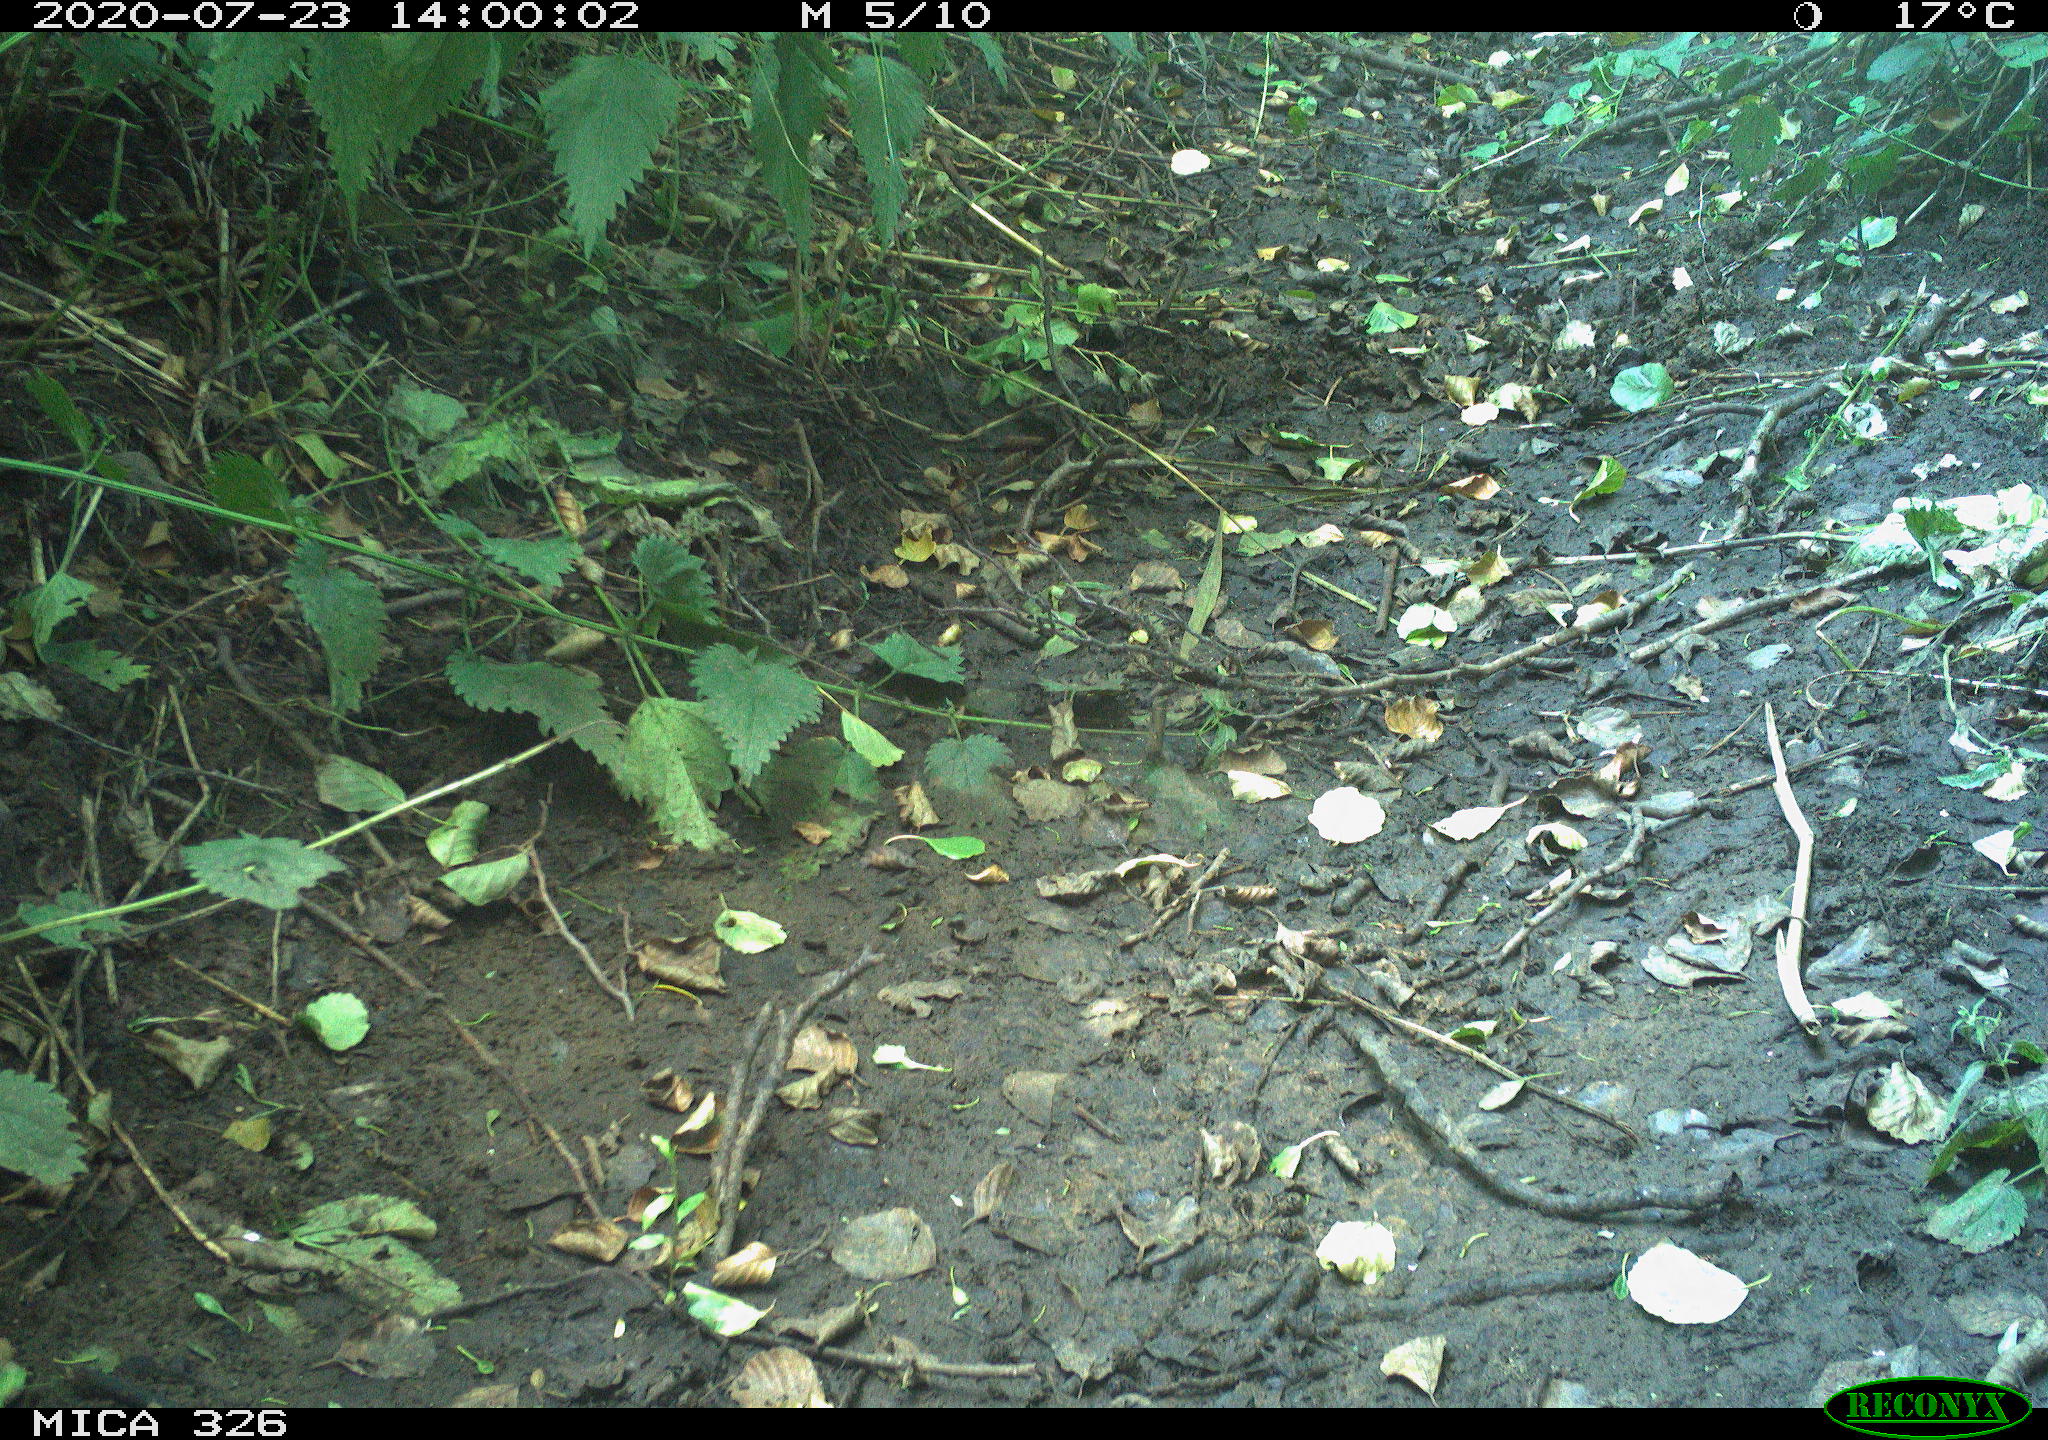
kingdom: Animalia
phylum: Chordata
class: Aves
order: Passeriformes
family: Muscicapidae
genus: Erithacus
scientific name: Erithacus rubecula
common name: European robin
